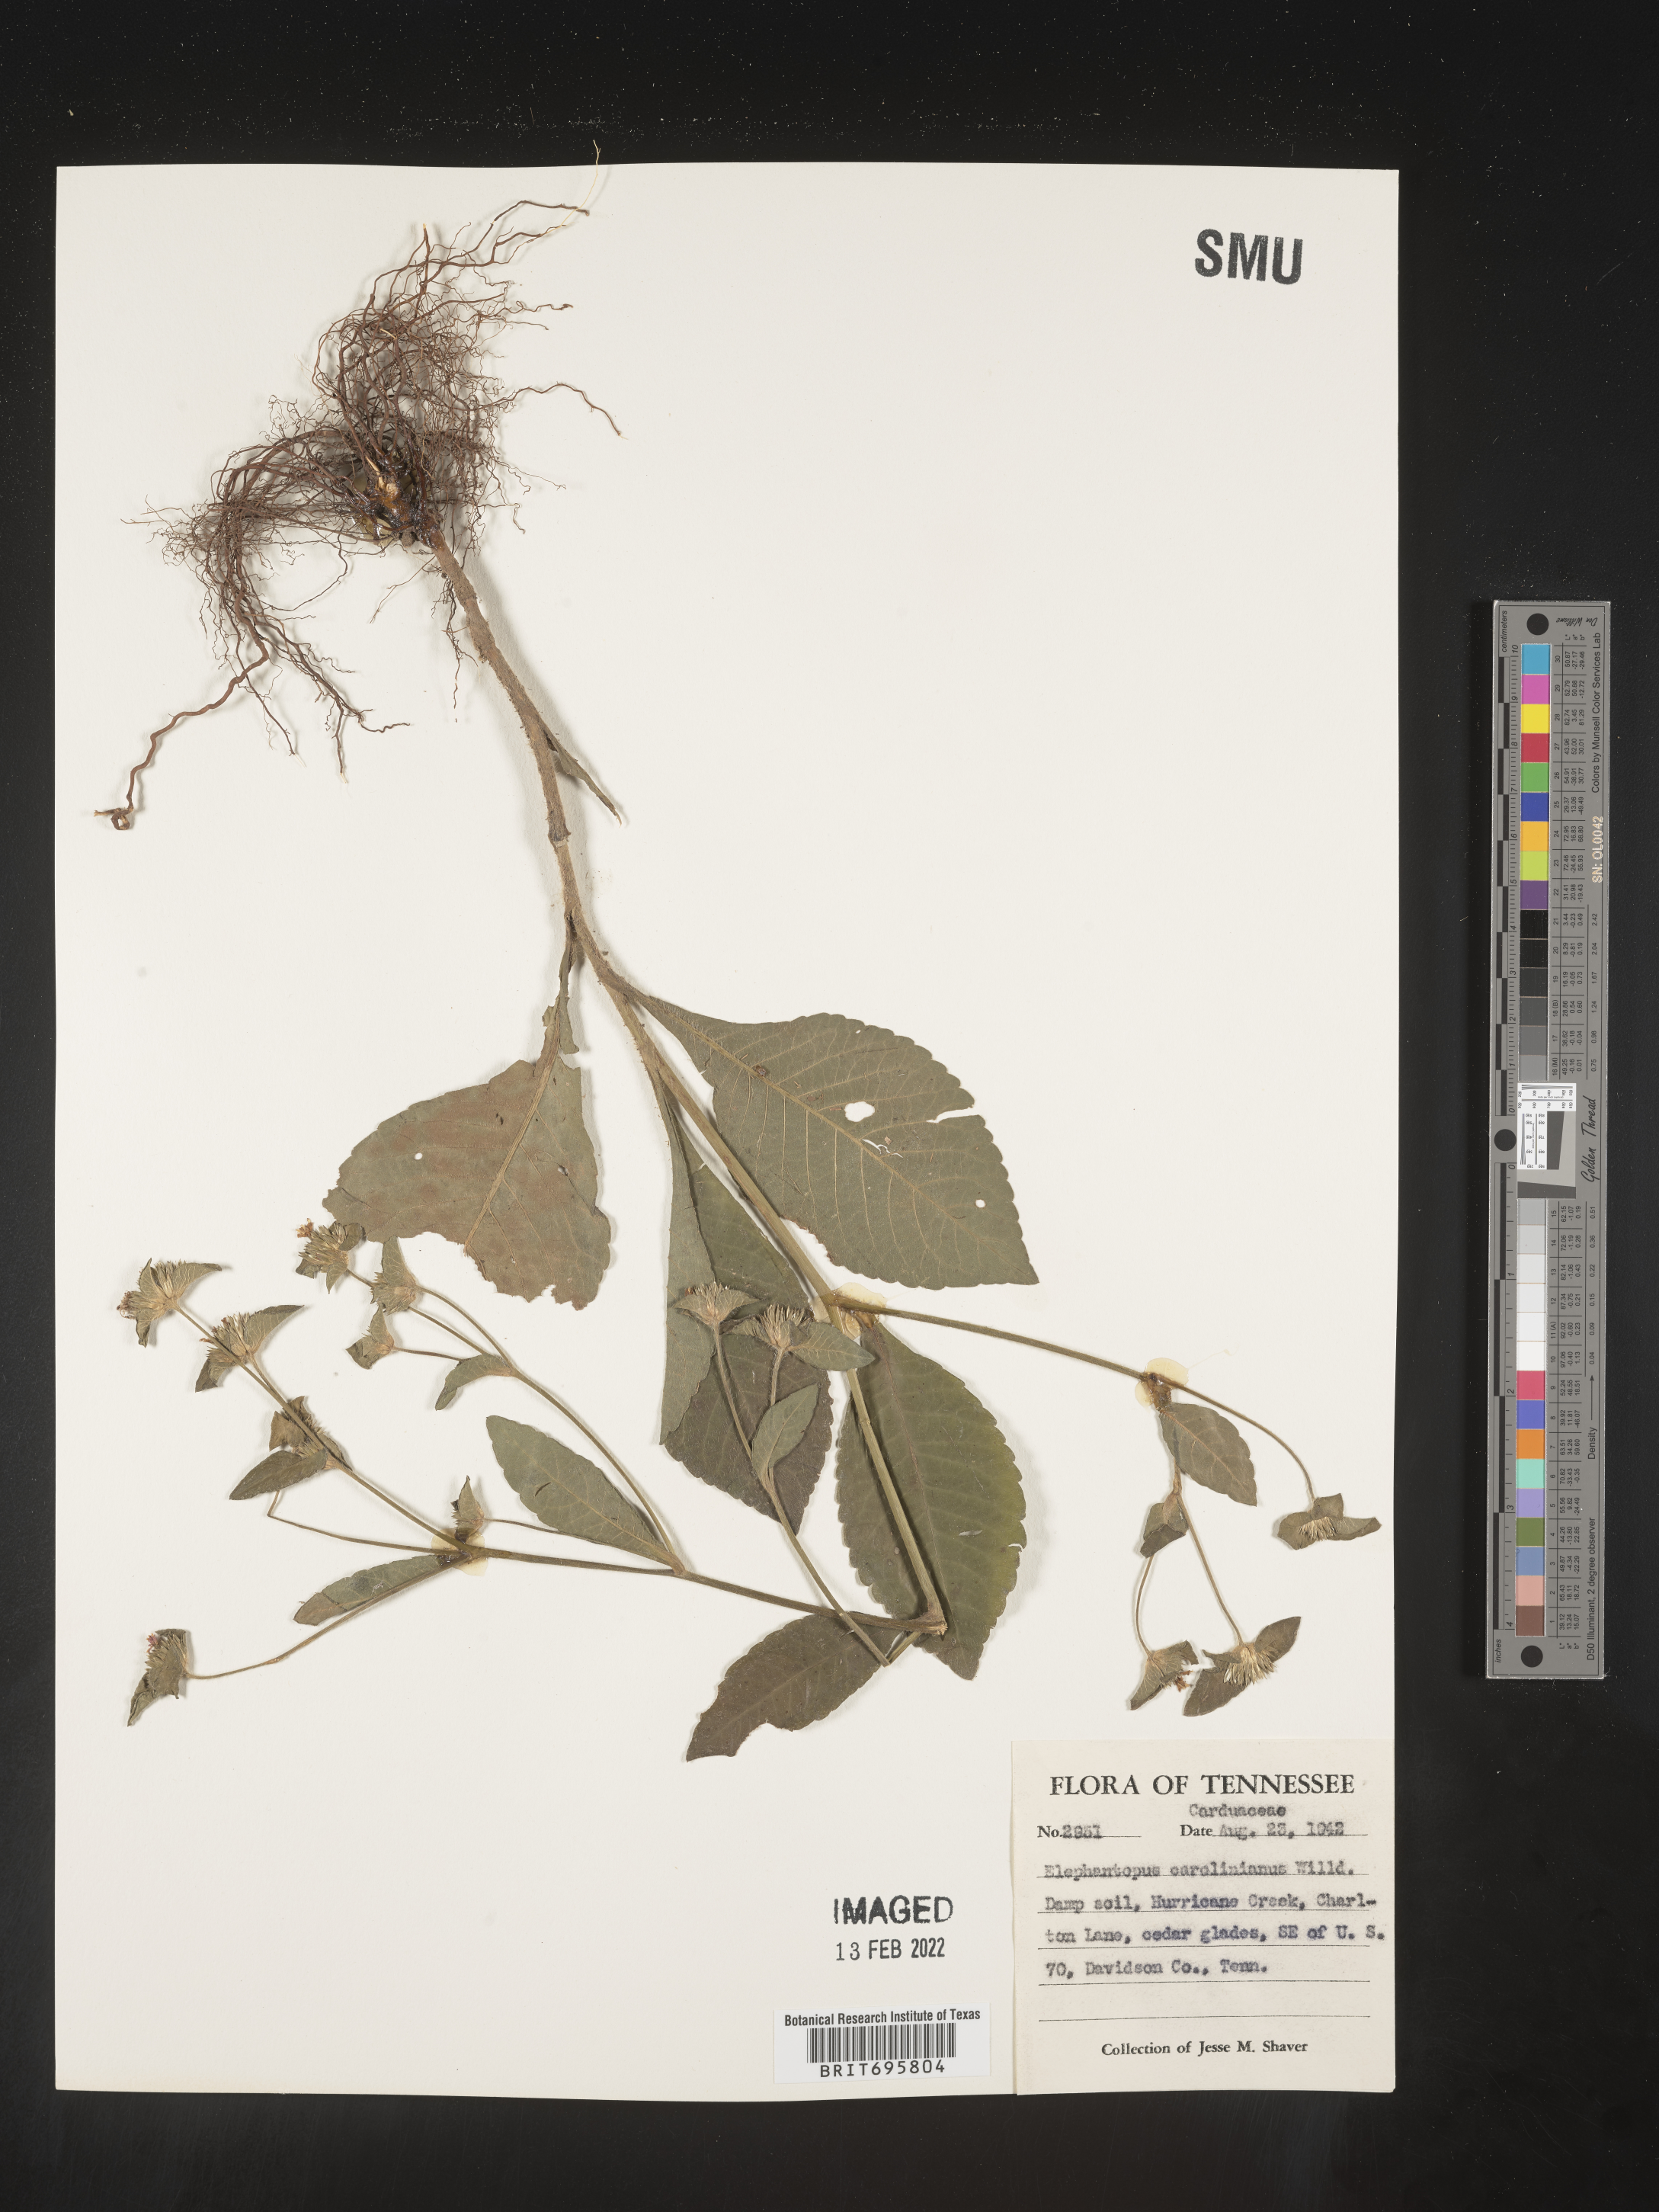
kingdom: Plantae
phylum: Tracheophyta
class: Magnoliopsida
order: Asterales
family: Asteraceae
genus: Elephantopus
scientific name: Elephantopus carolinianus
